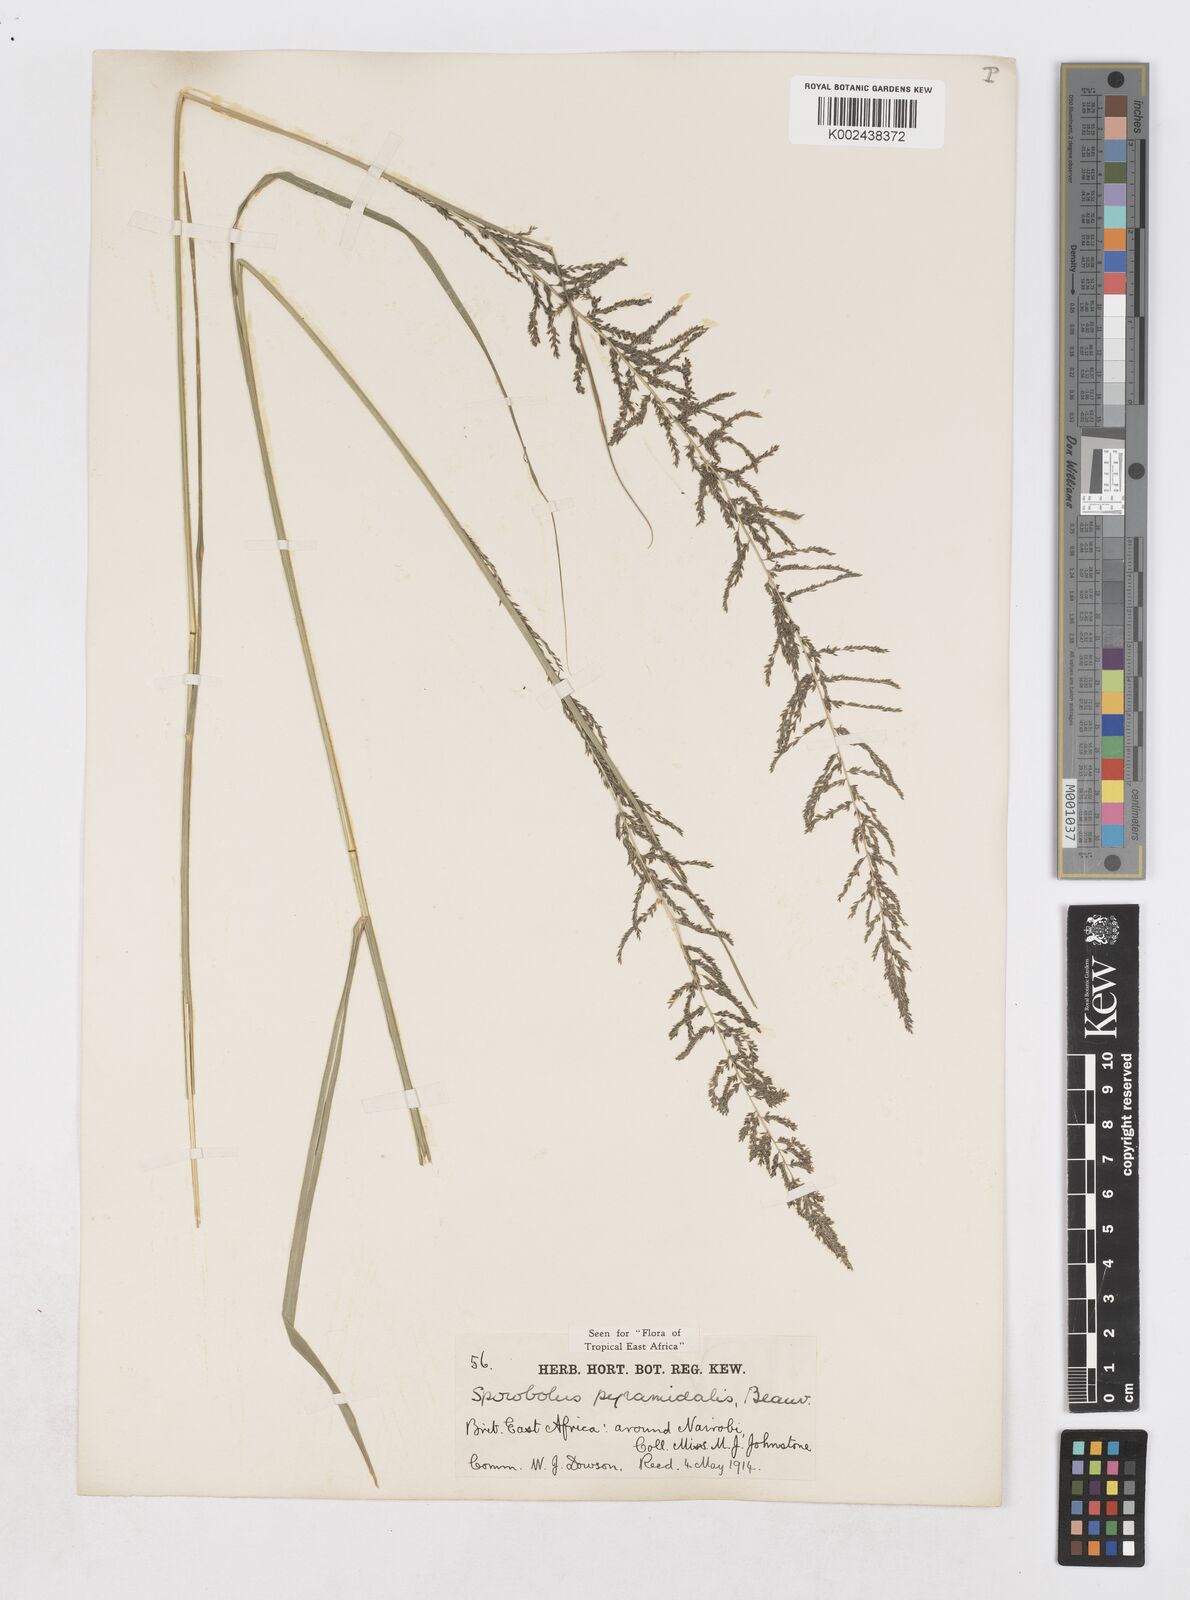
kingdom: Plantae
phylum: Tracheophyta
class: Liliopsida
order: Poales
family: Poaceae
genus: Sporobolus
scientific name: Sporobolus pyramidalis
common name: West indian dropseed
